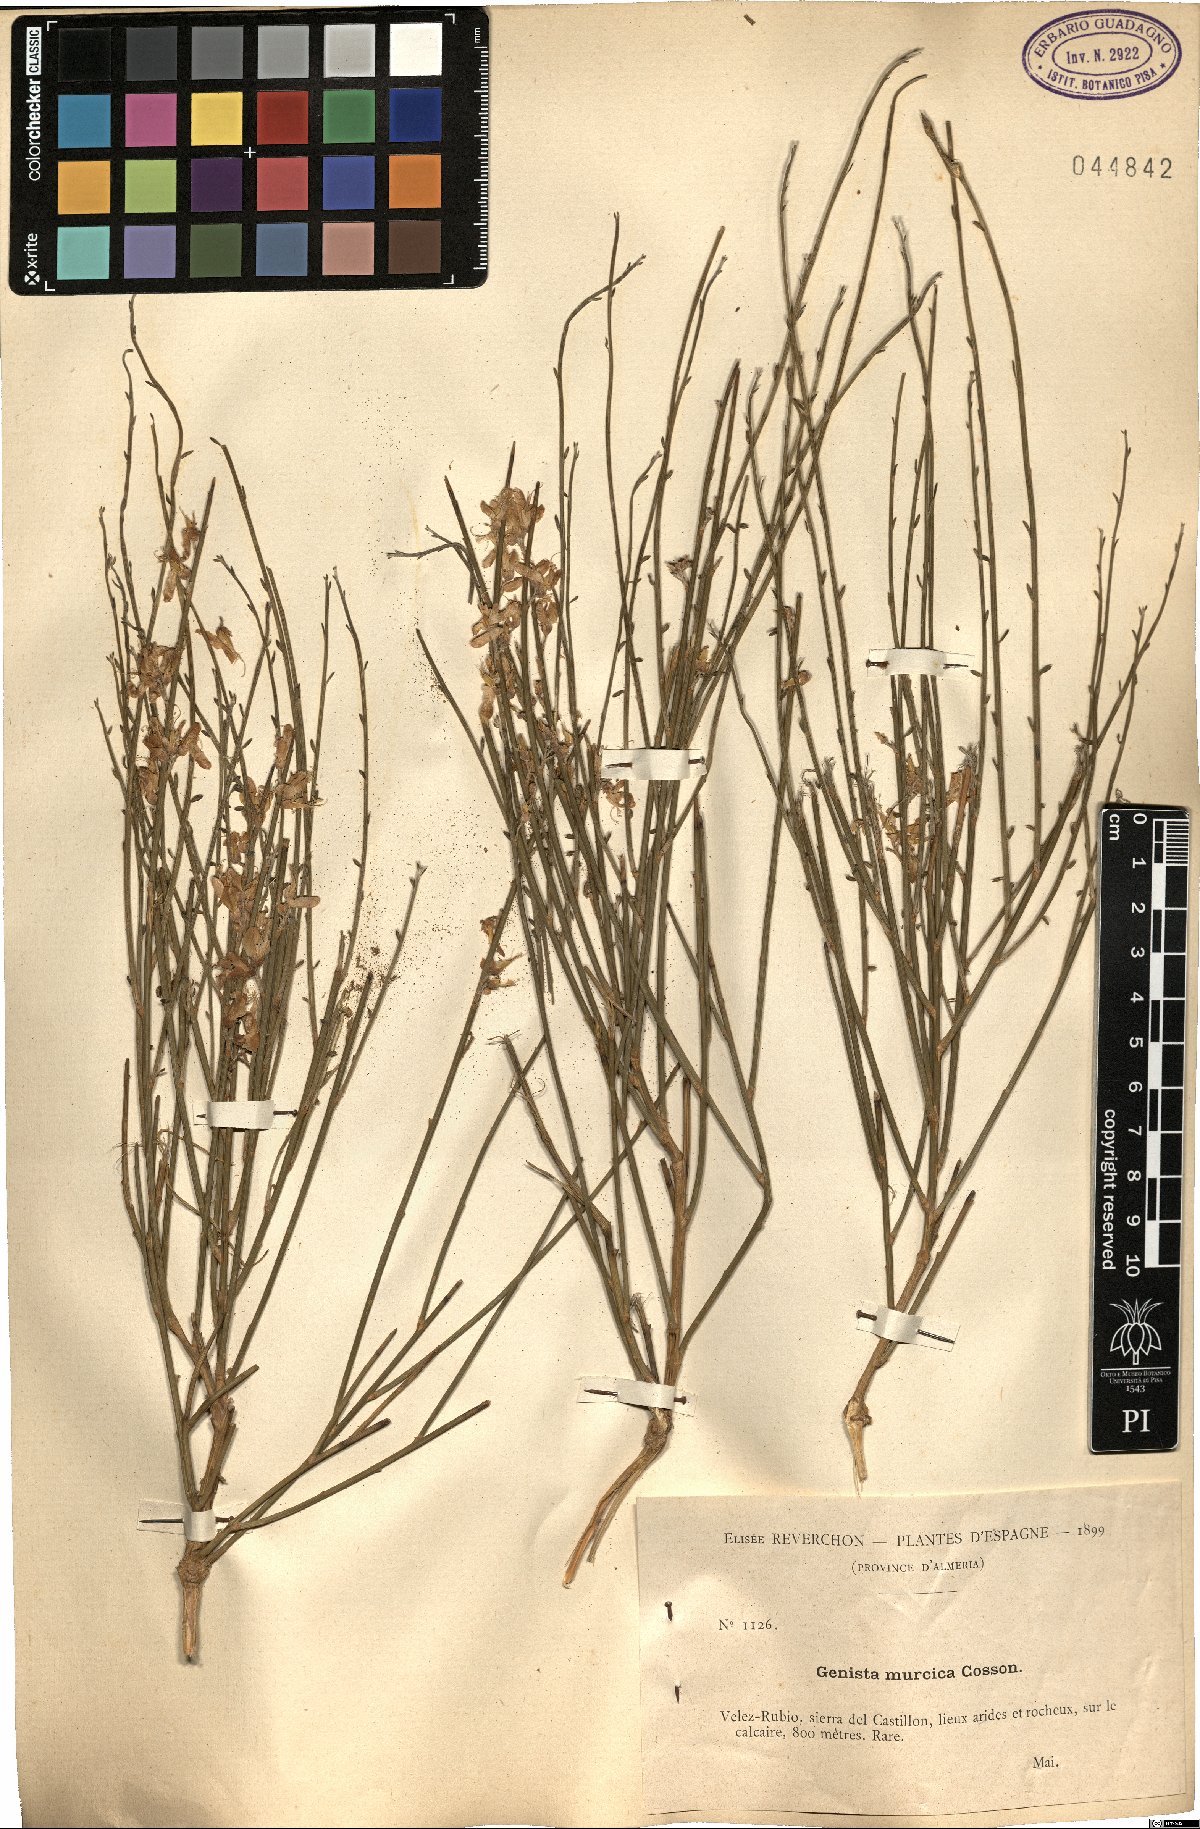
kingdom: Plantae
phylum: Tracheophyta
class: Magnoliopsida
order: Fabales
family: Fabaceae
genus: Genista
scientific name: Genista cinerea
